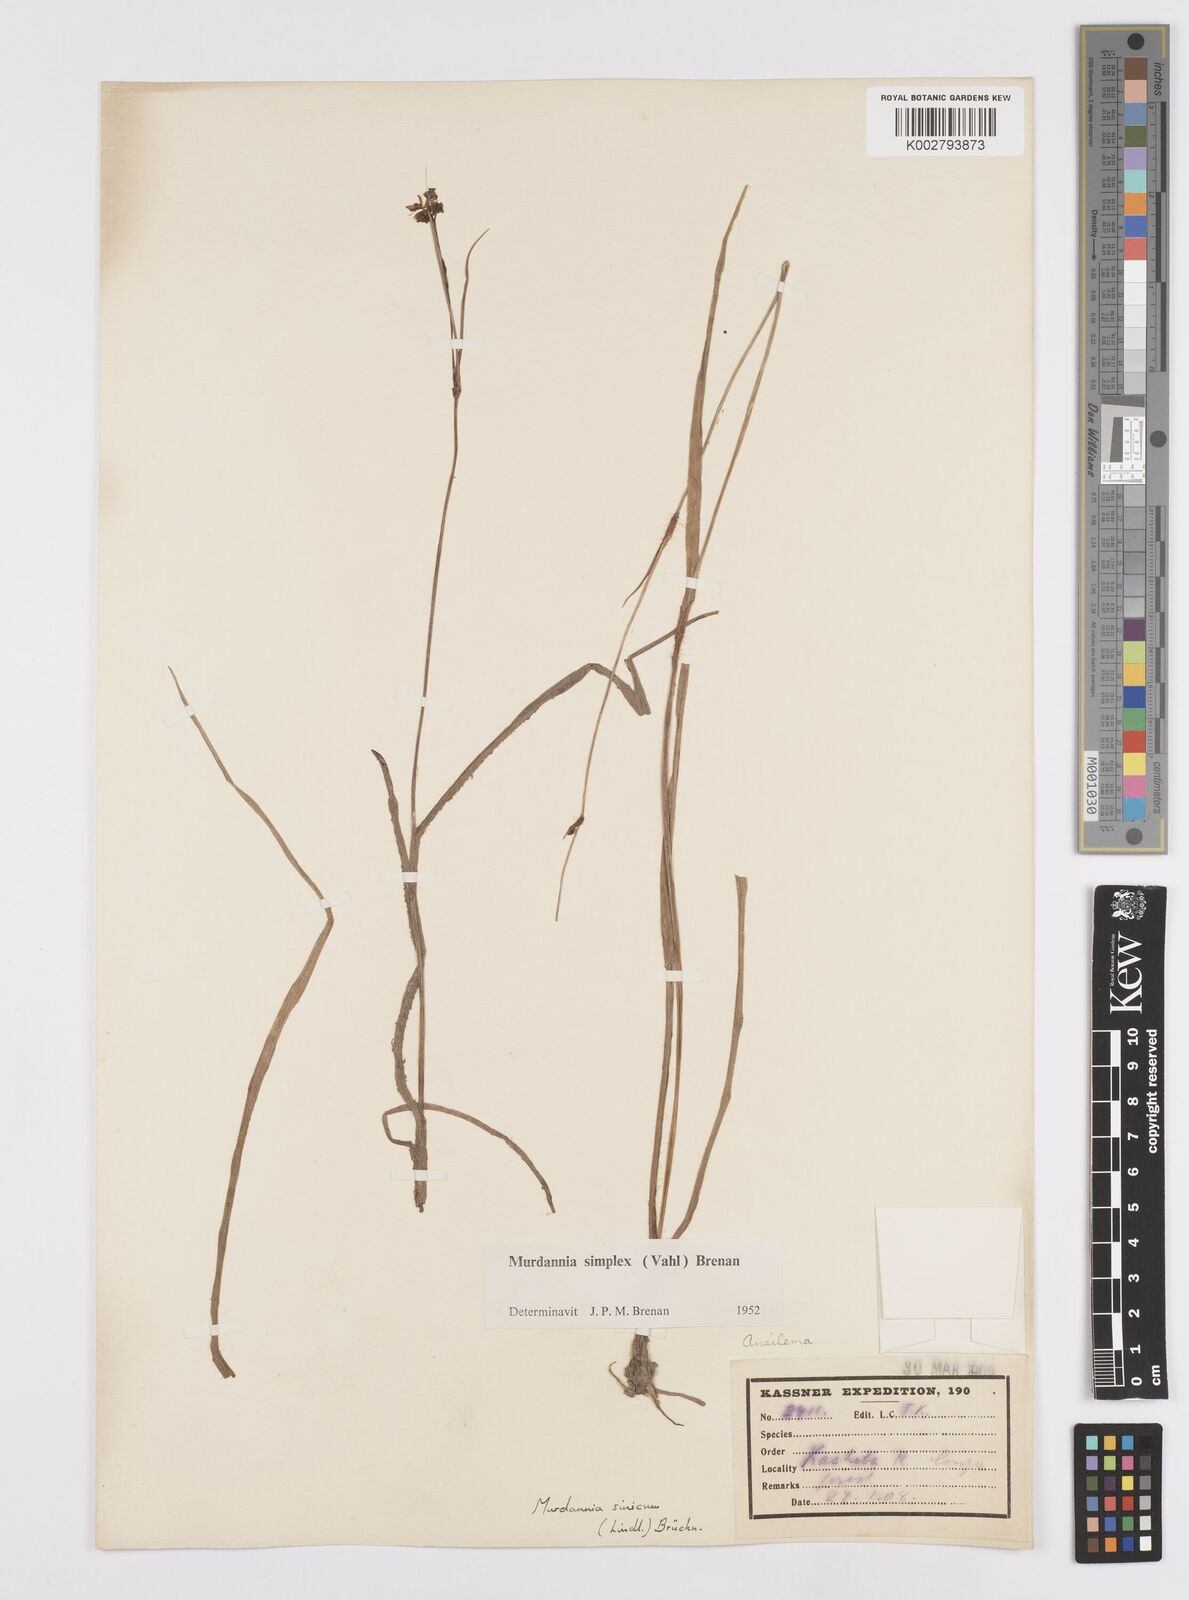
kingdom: Plantae
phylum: Tracheophyta
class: Liliopsida
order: Commelinales
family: Commelinaceae
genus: Murdannia
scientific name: Murdannia simplex
